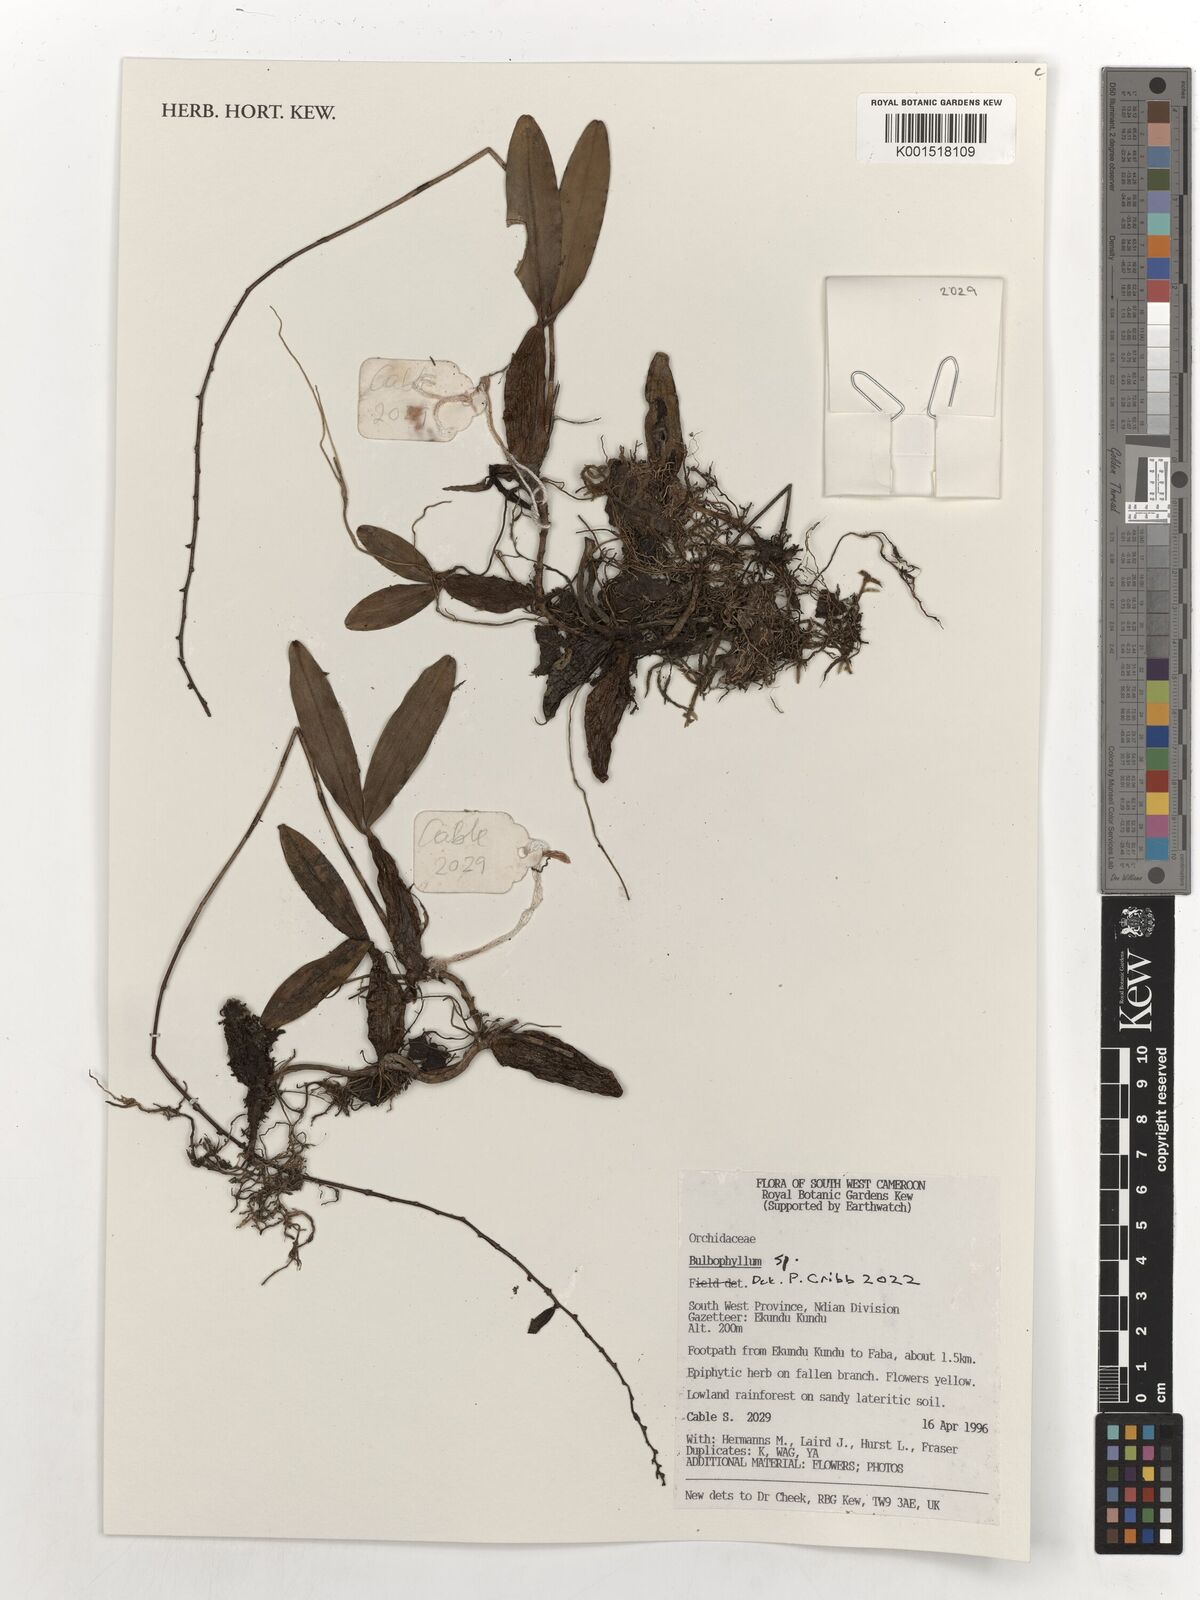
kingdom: Plantae
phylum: Tracheophyta
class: Liliopsida
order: Asparagales
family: Orchidaceae
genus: Bulbophyllum
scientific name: Bulbophyllum
